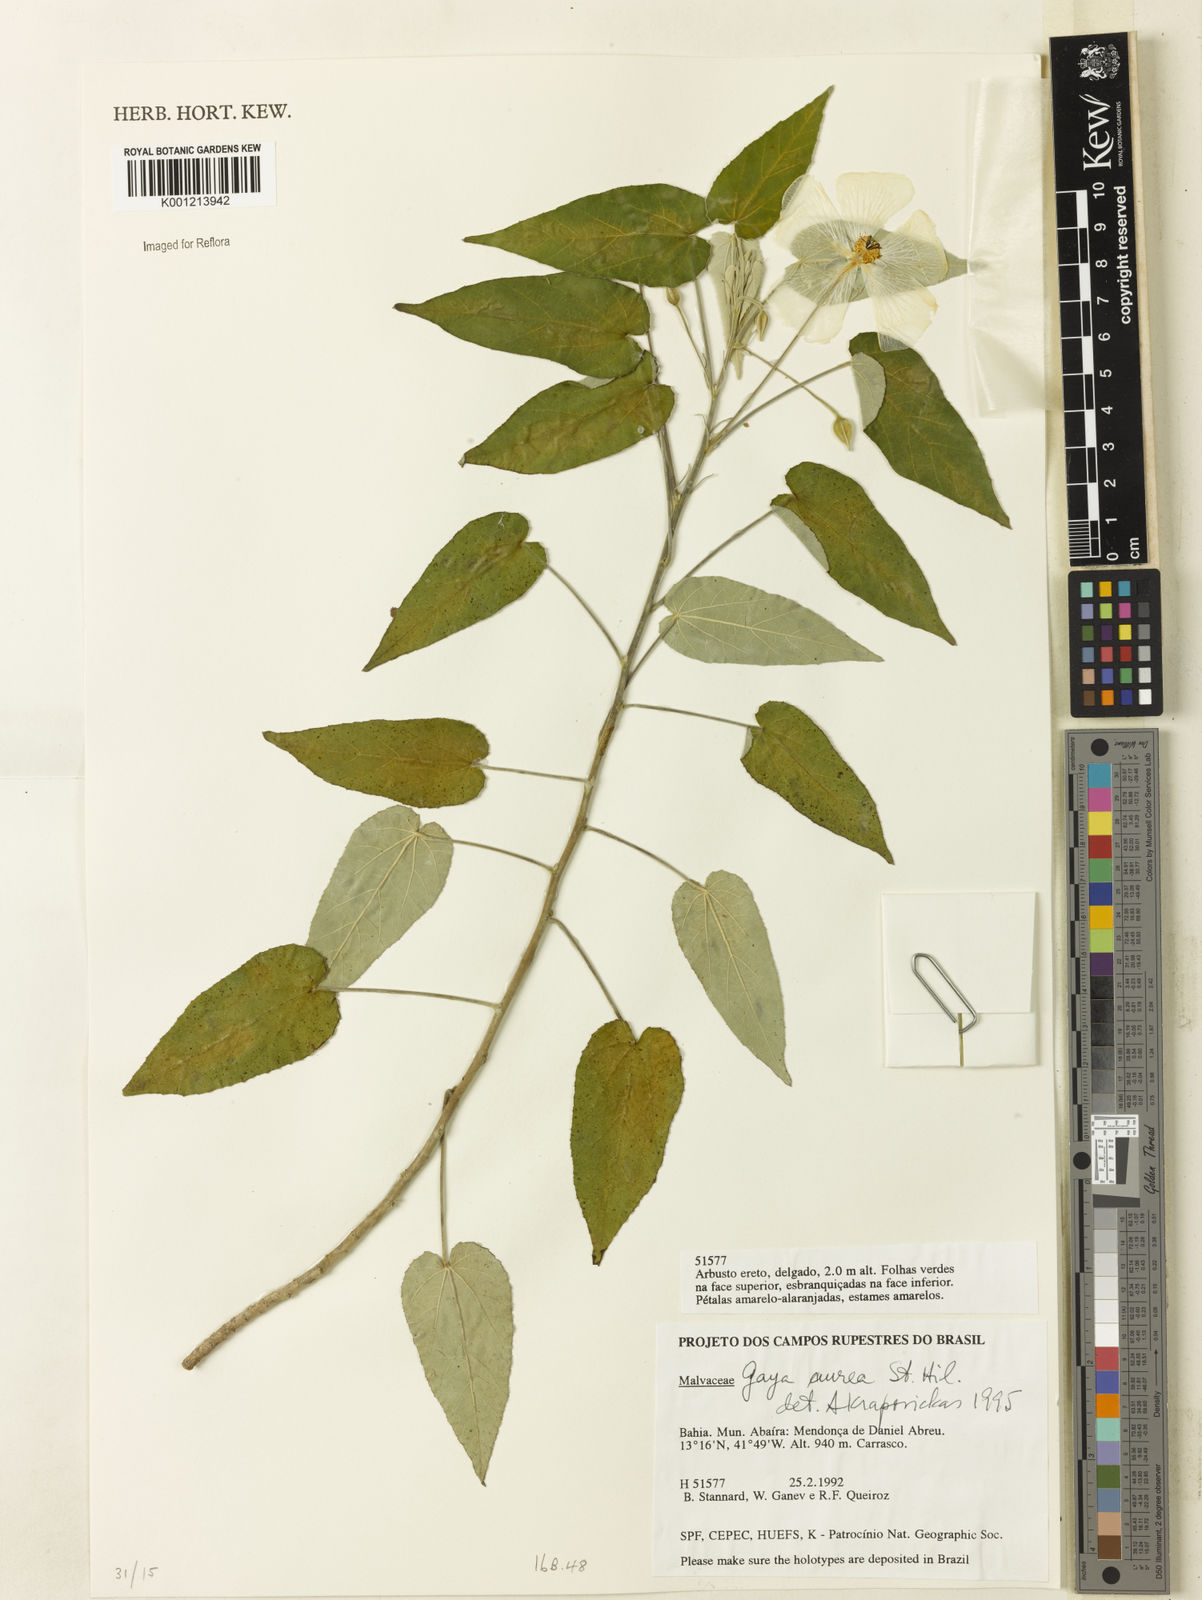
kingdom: Plantae
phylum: Tracheophyta
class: Magnoliopsida
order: Malvales
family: Malvaceae
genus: Gaya
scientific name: Gaya aurea
